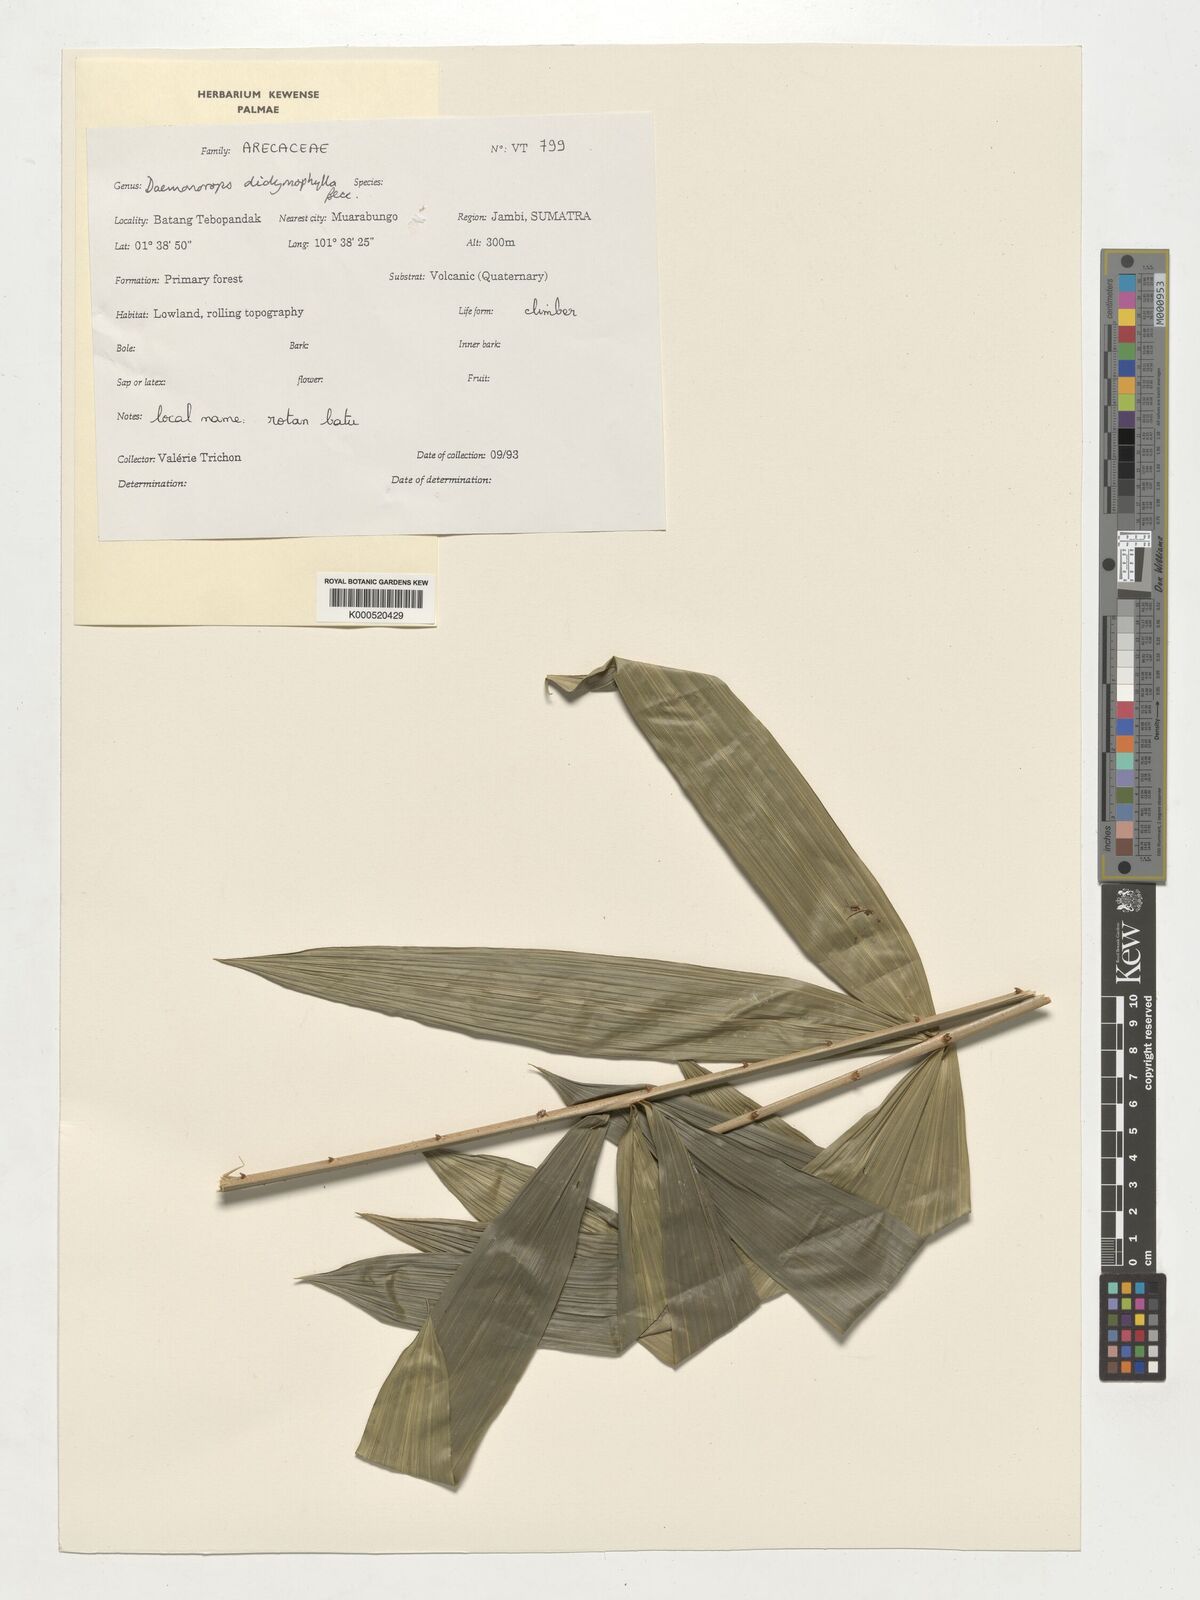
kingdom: Plantae
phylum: Tracheophyta
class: Liliopsida
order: Arecales
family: Arecaceae
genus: Calamus
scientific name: Calamus gracilipes
